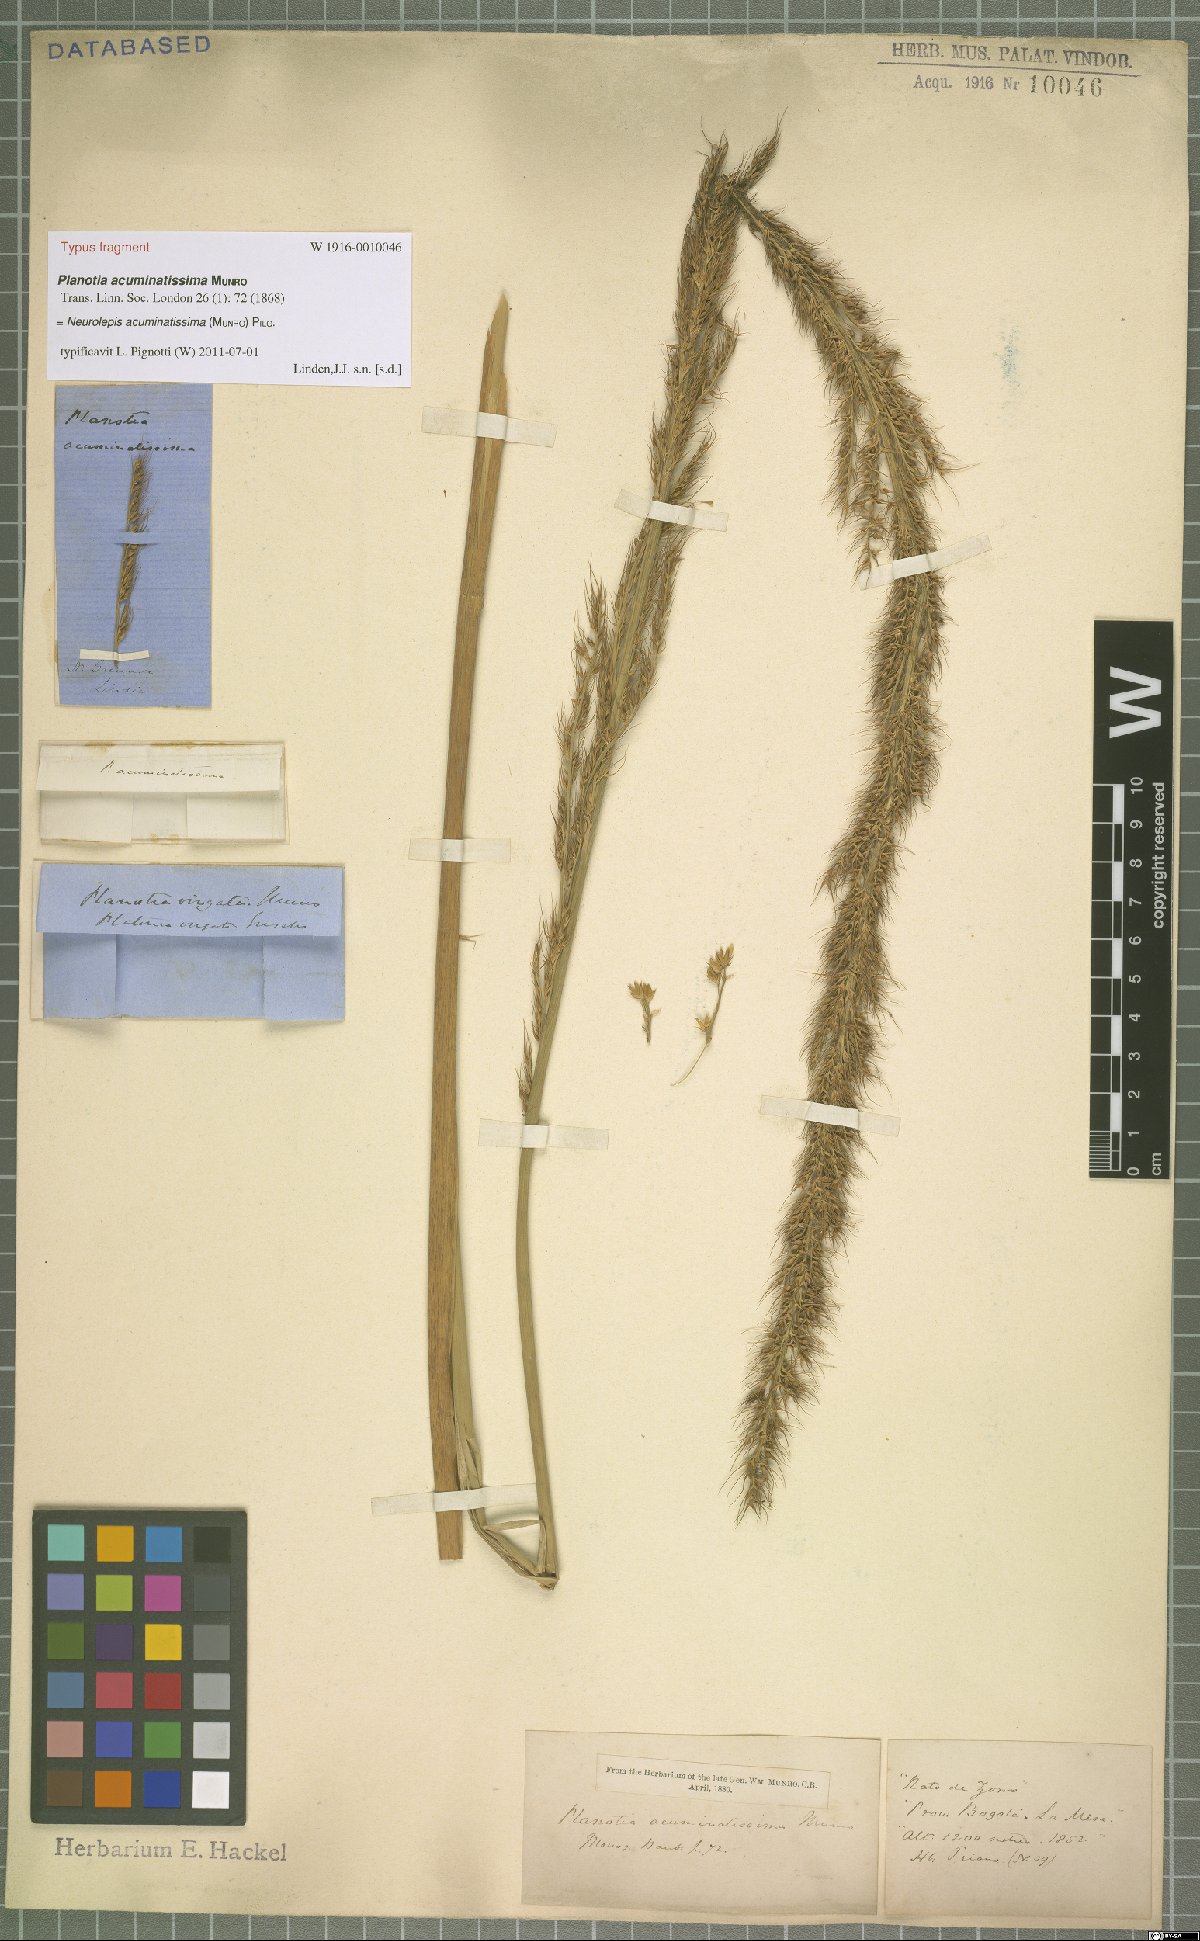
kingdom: Plantae
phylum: Tracheophyta
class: Liliopsida
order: Poales
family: Poaceae
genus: Chusquea
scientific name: Chusquea acuminatissima
